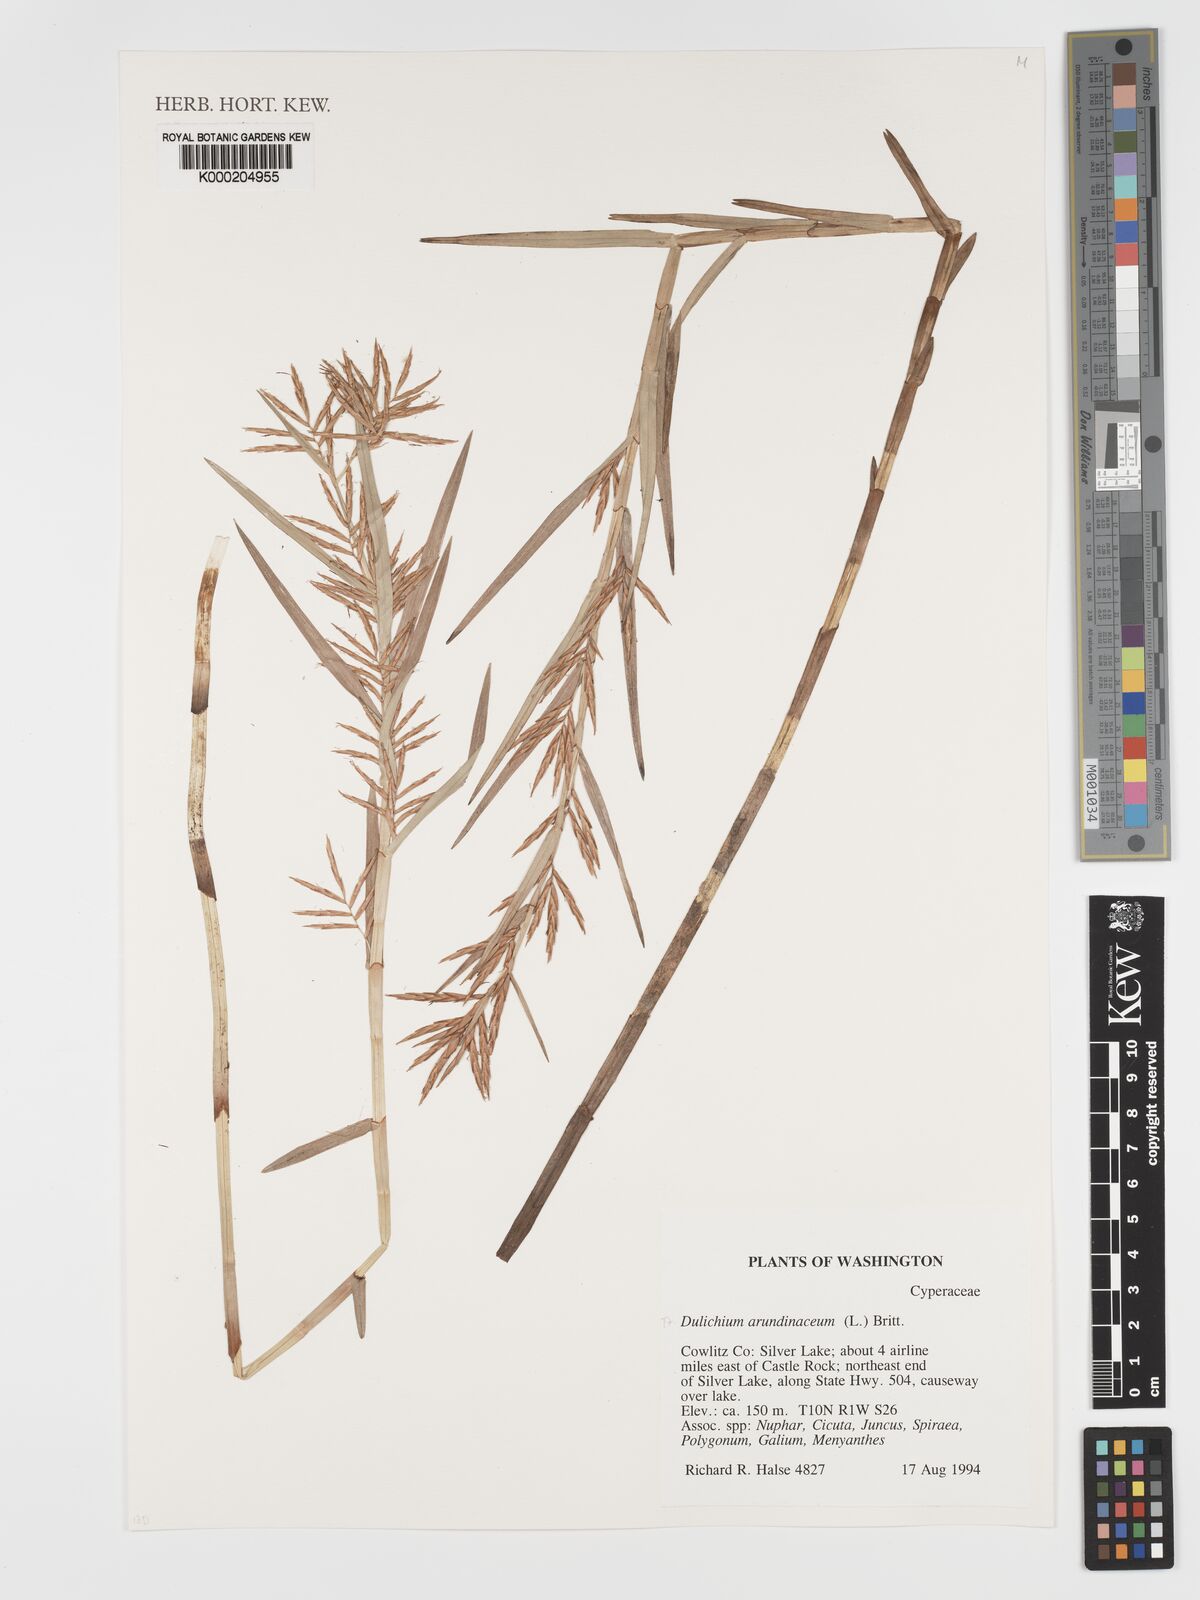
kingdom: Plantae
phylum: Tracheophyta
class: Liliopsida
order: Poales
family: Cyperaceae
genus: Dulichium
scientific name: Dulichium arundinaceum
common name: Three-way sedge
